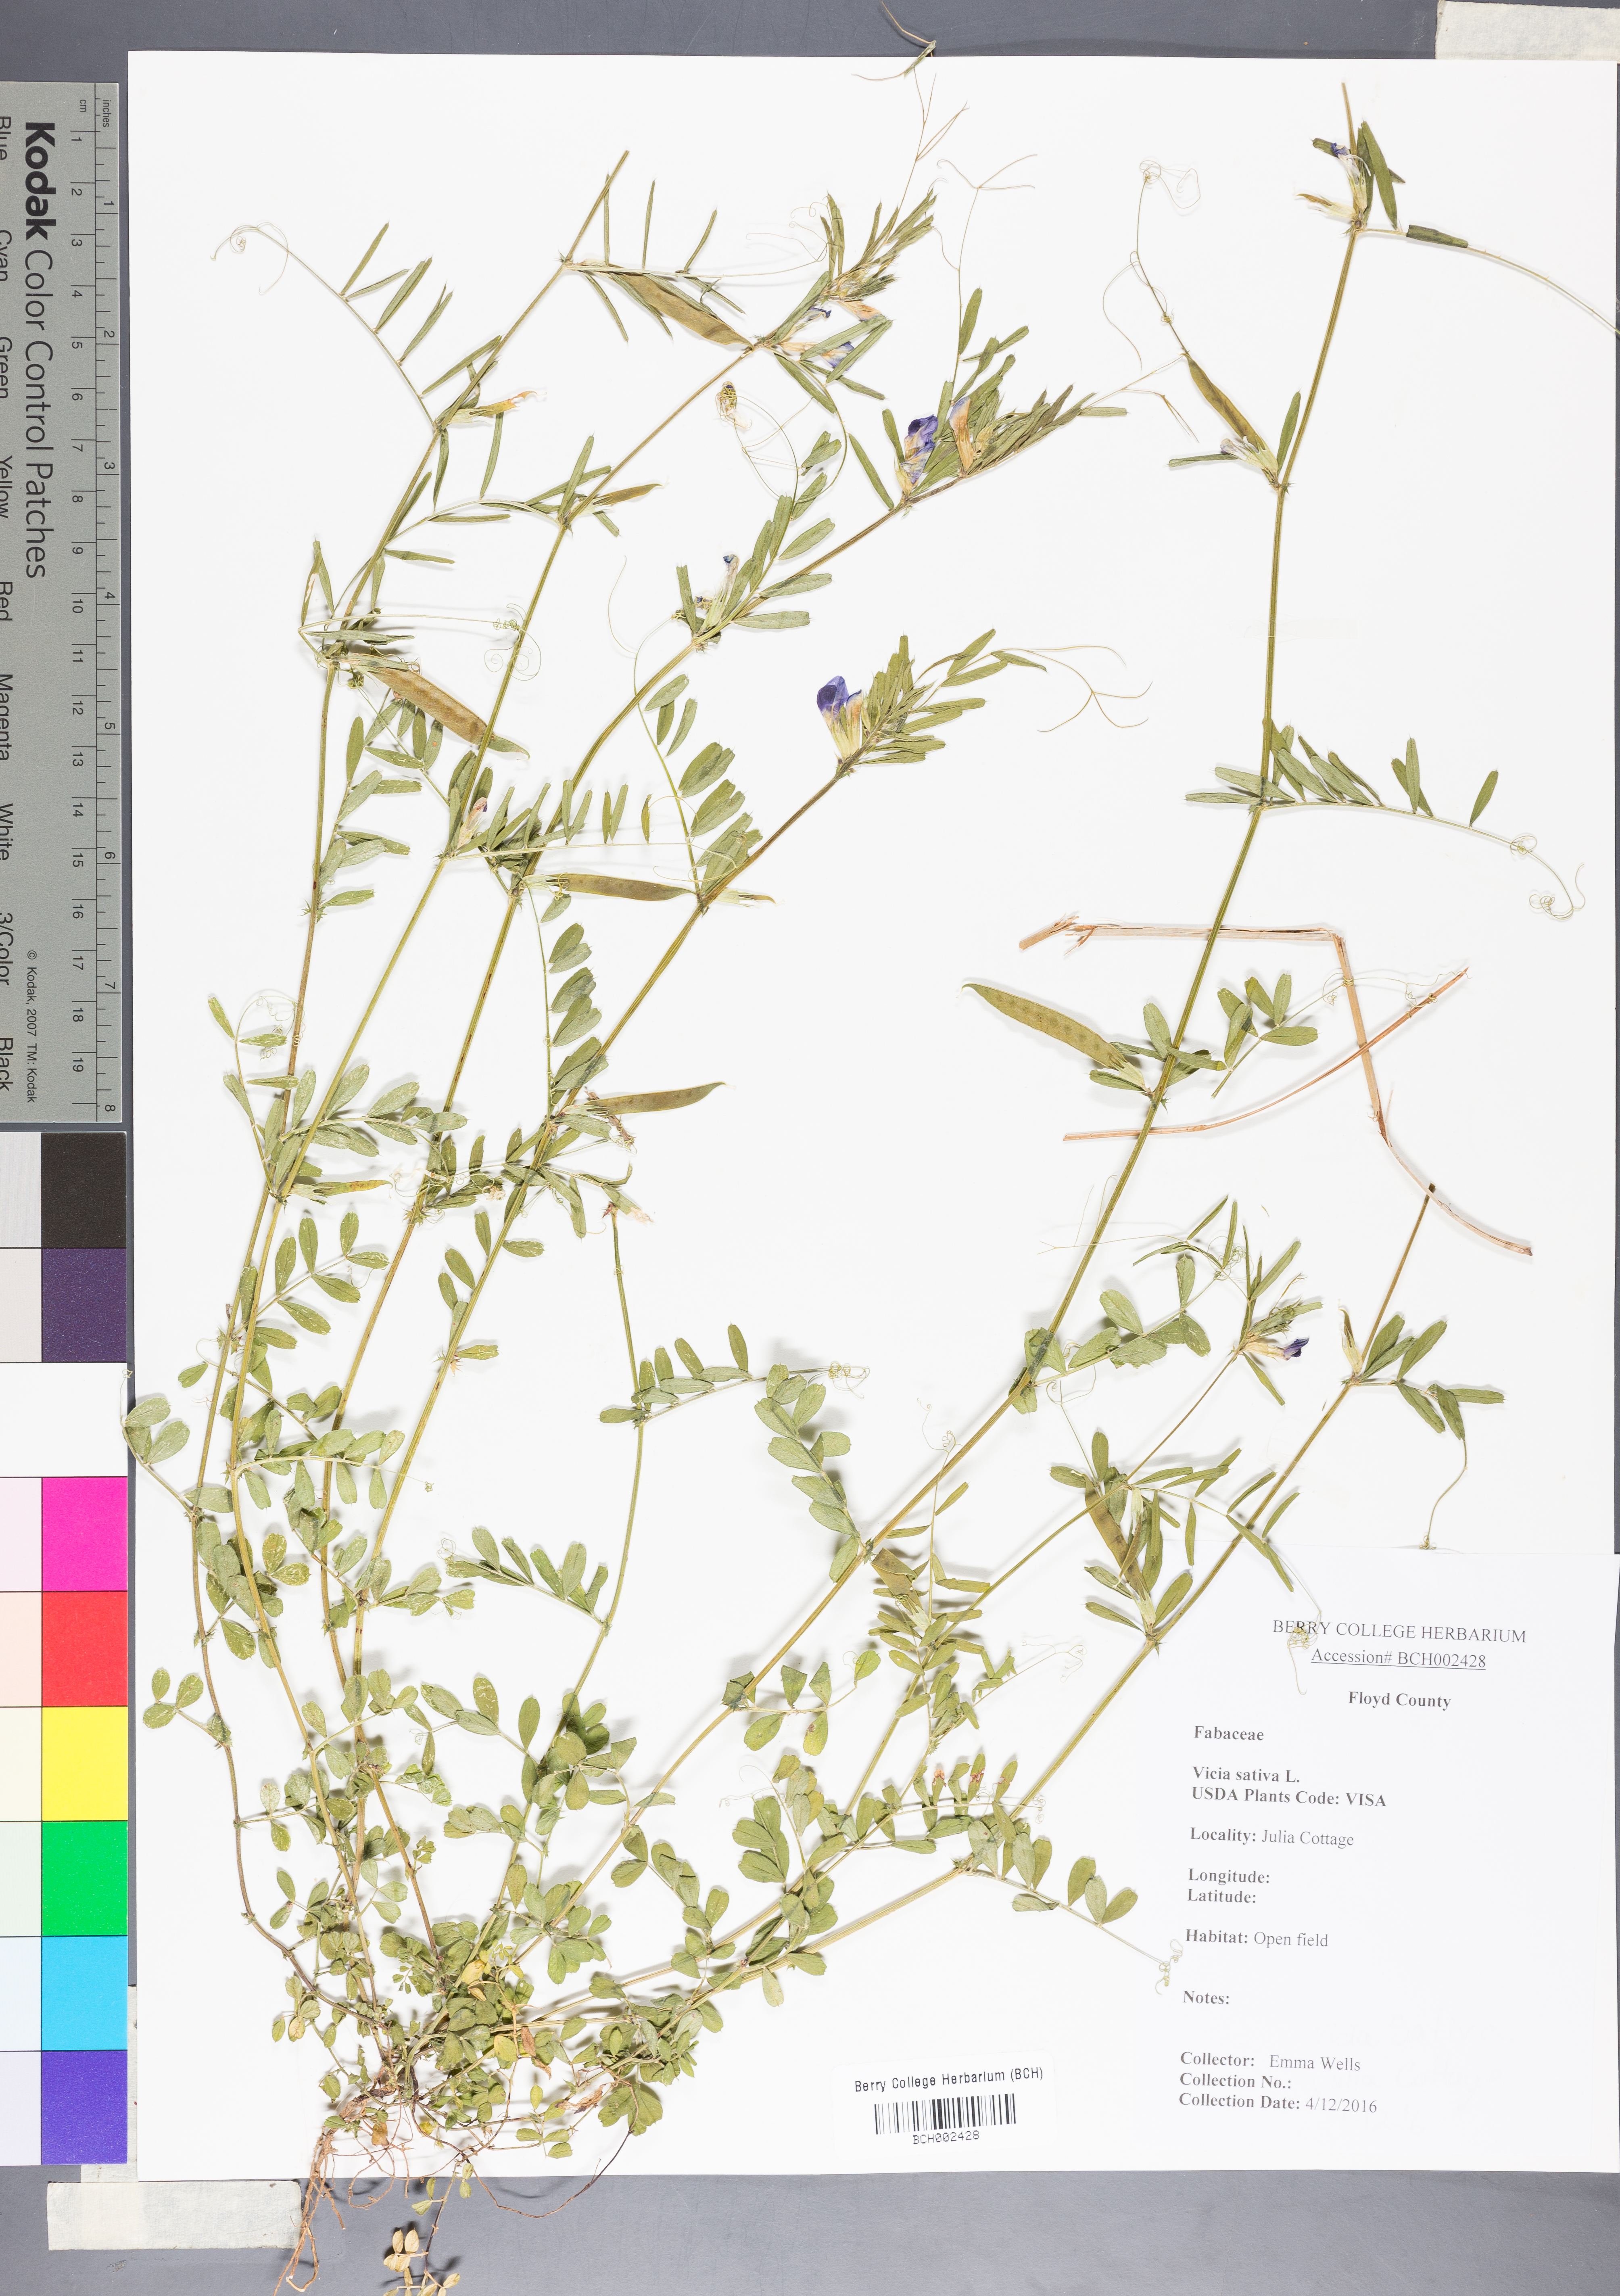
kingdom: Plantae
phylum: Tracheophyta
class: Magnoliopsida
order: Fabales
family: Fabaceae
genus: Vicia
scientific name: Vicia sativa
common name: Garden vetch
